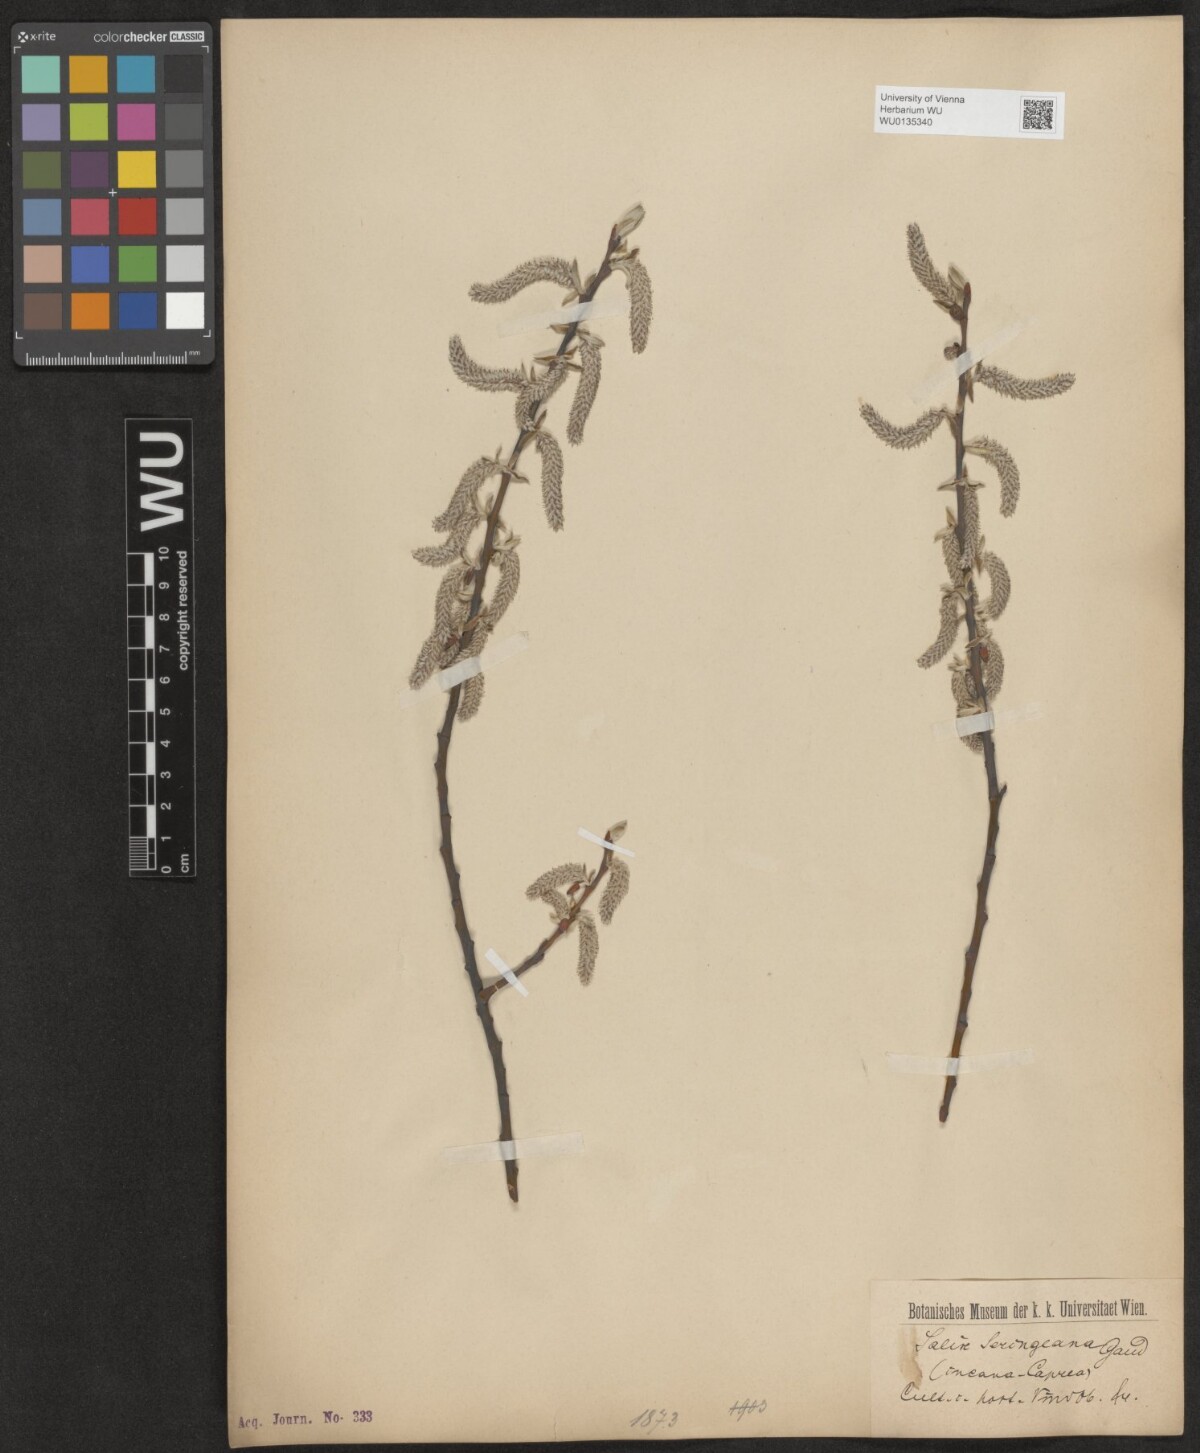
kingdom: Plantae
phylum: Tracheophyta
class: Magnoliopsida
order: Malpighiales
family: Salicaceae
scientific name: Salicaceae
